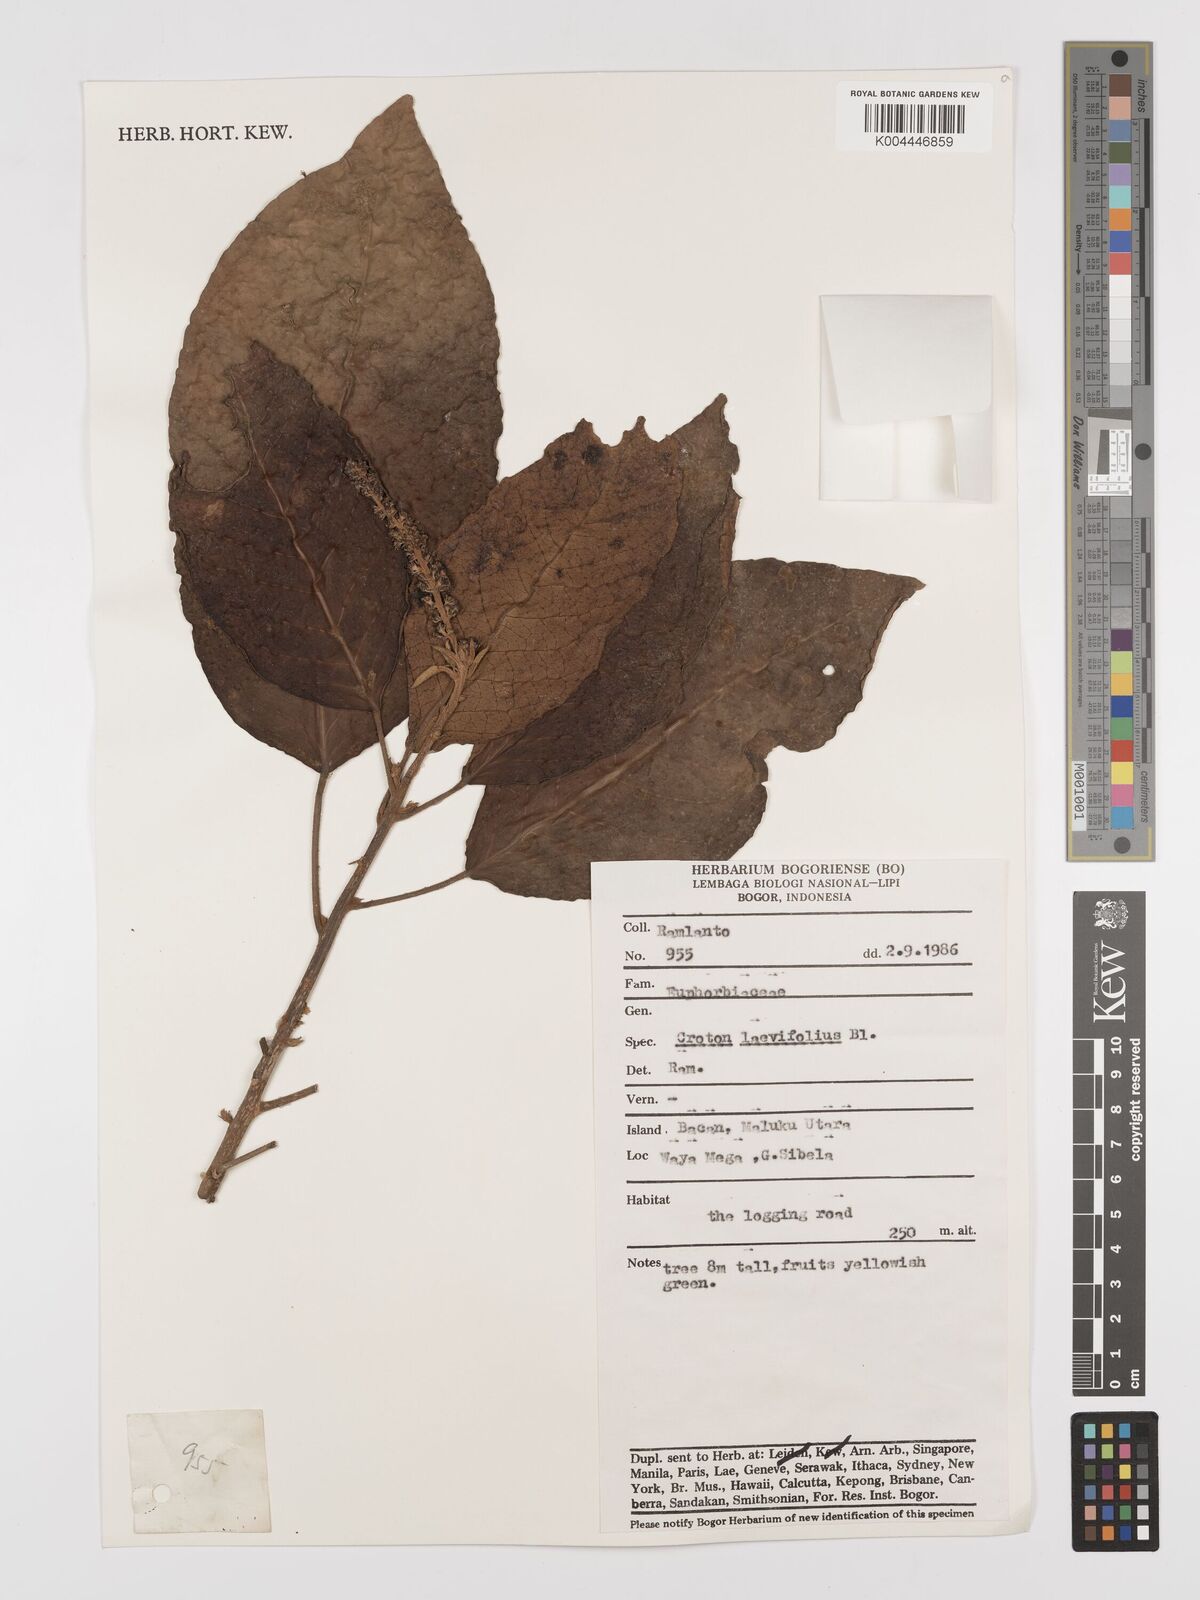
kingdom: Plantae
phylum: Tracheophyta
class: Magnoliopsida
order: Malpighiales
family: Euphorbiaceae
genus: Croton
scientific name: Croton oblongus
